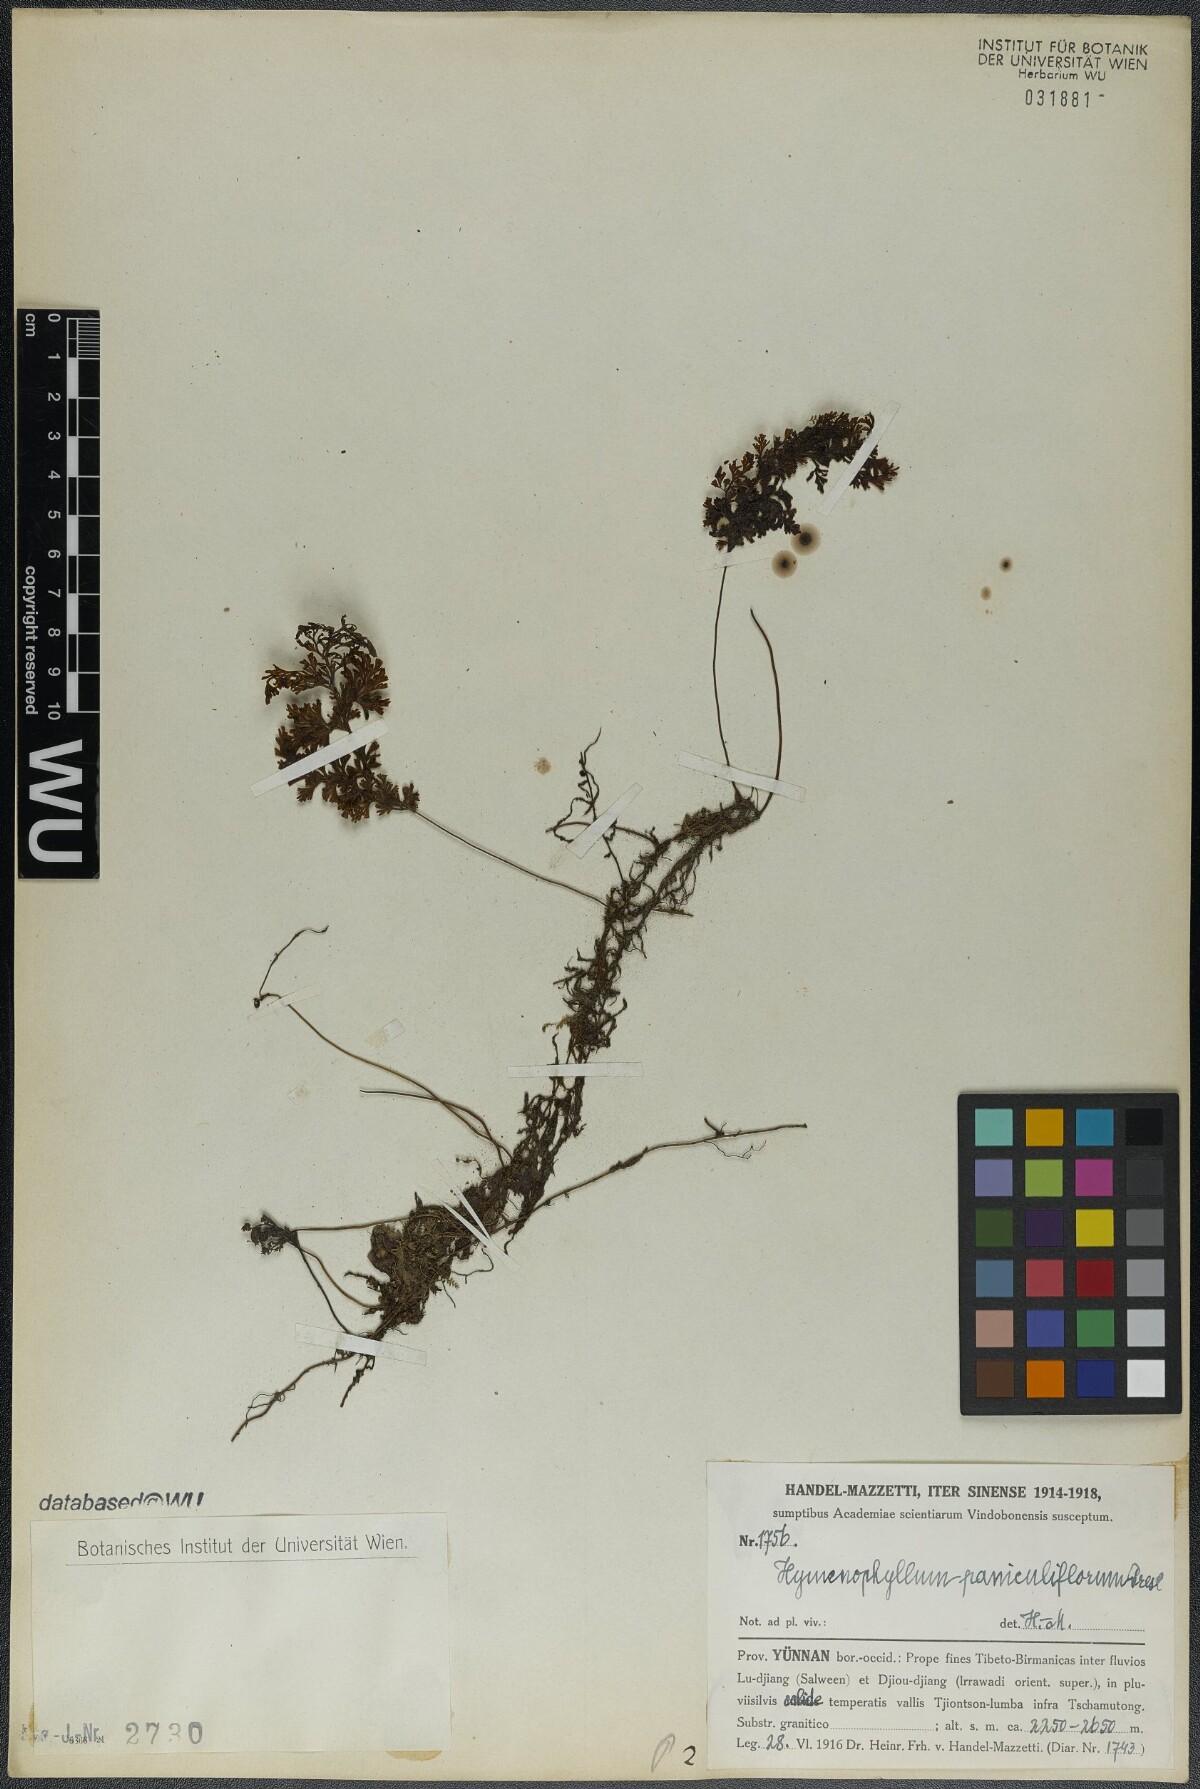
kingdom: Plantae
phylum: Tracheophyta
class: Polypodiopsida
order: Hymenophyllales
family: Hymenophyllaceae
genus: Hymenophyllum
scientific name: Hymenophyllum paniculiflorum
